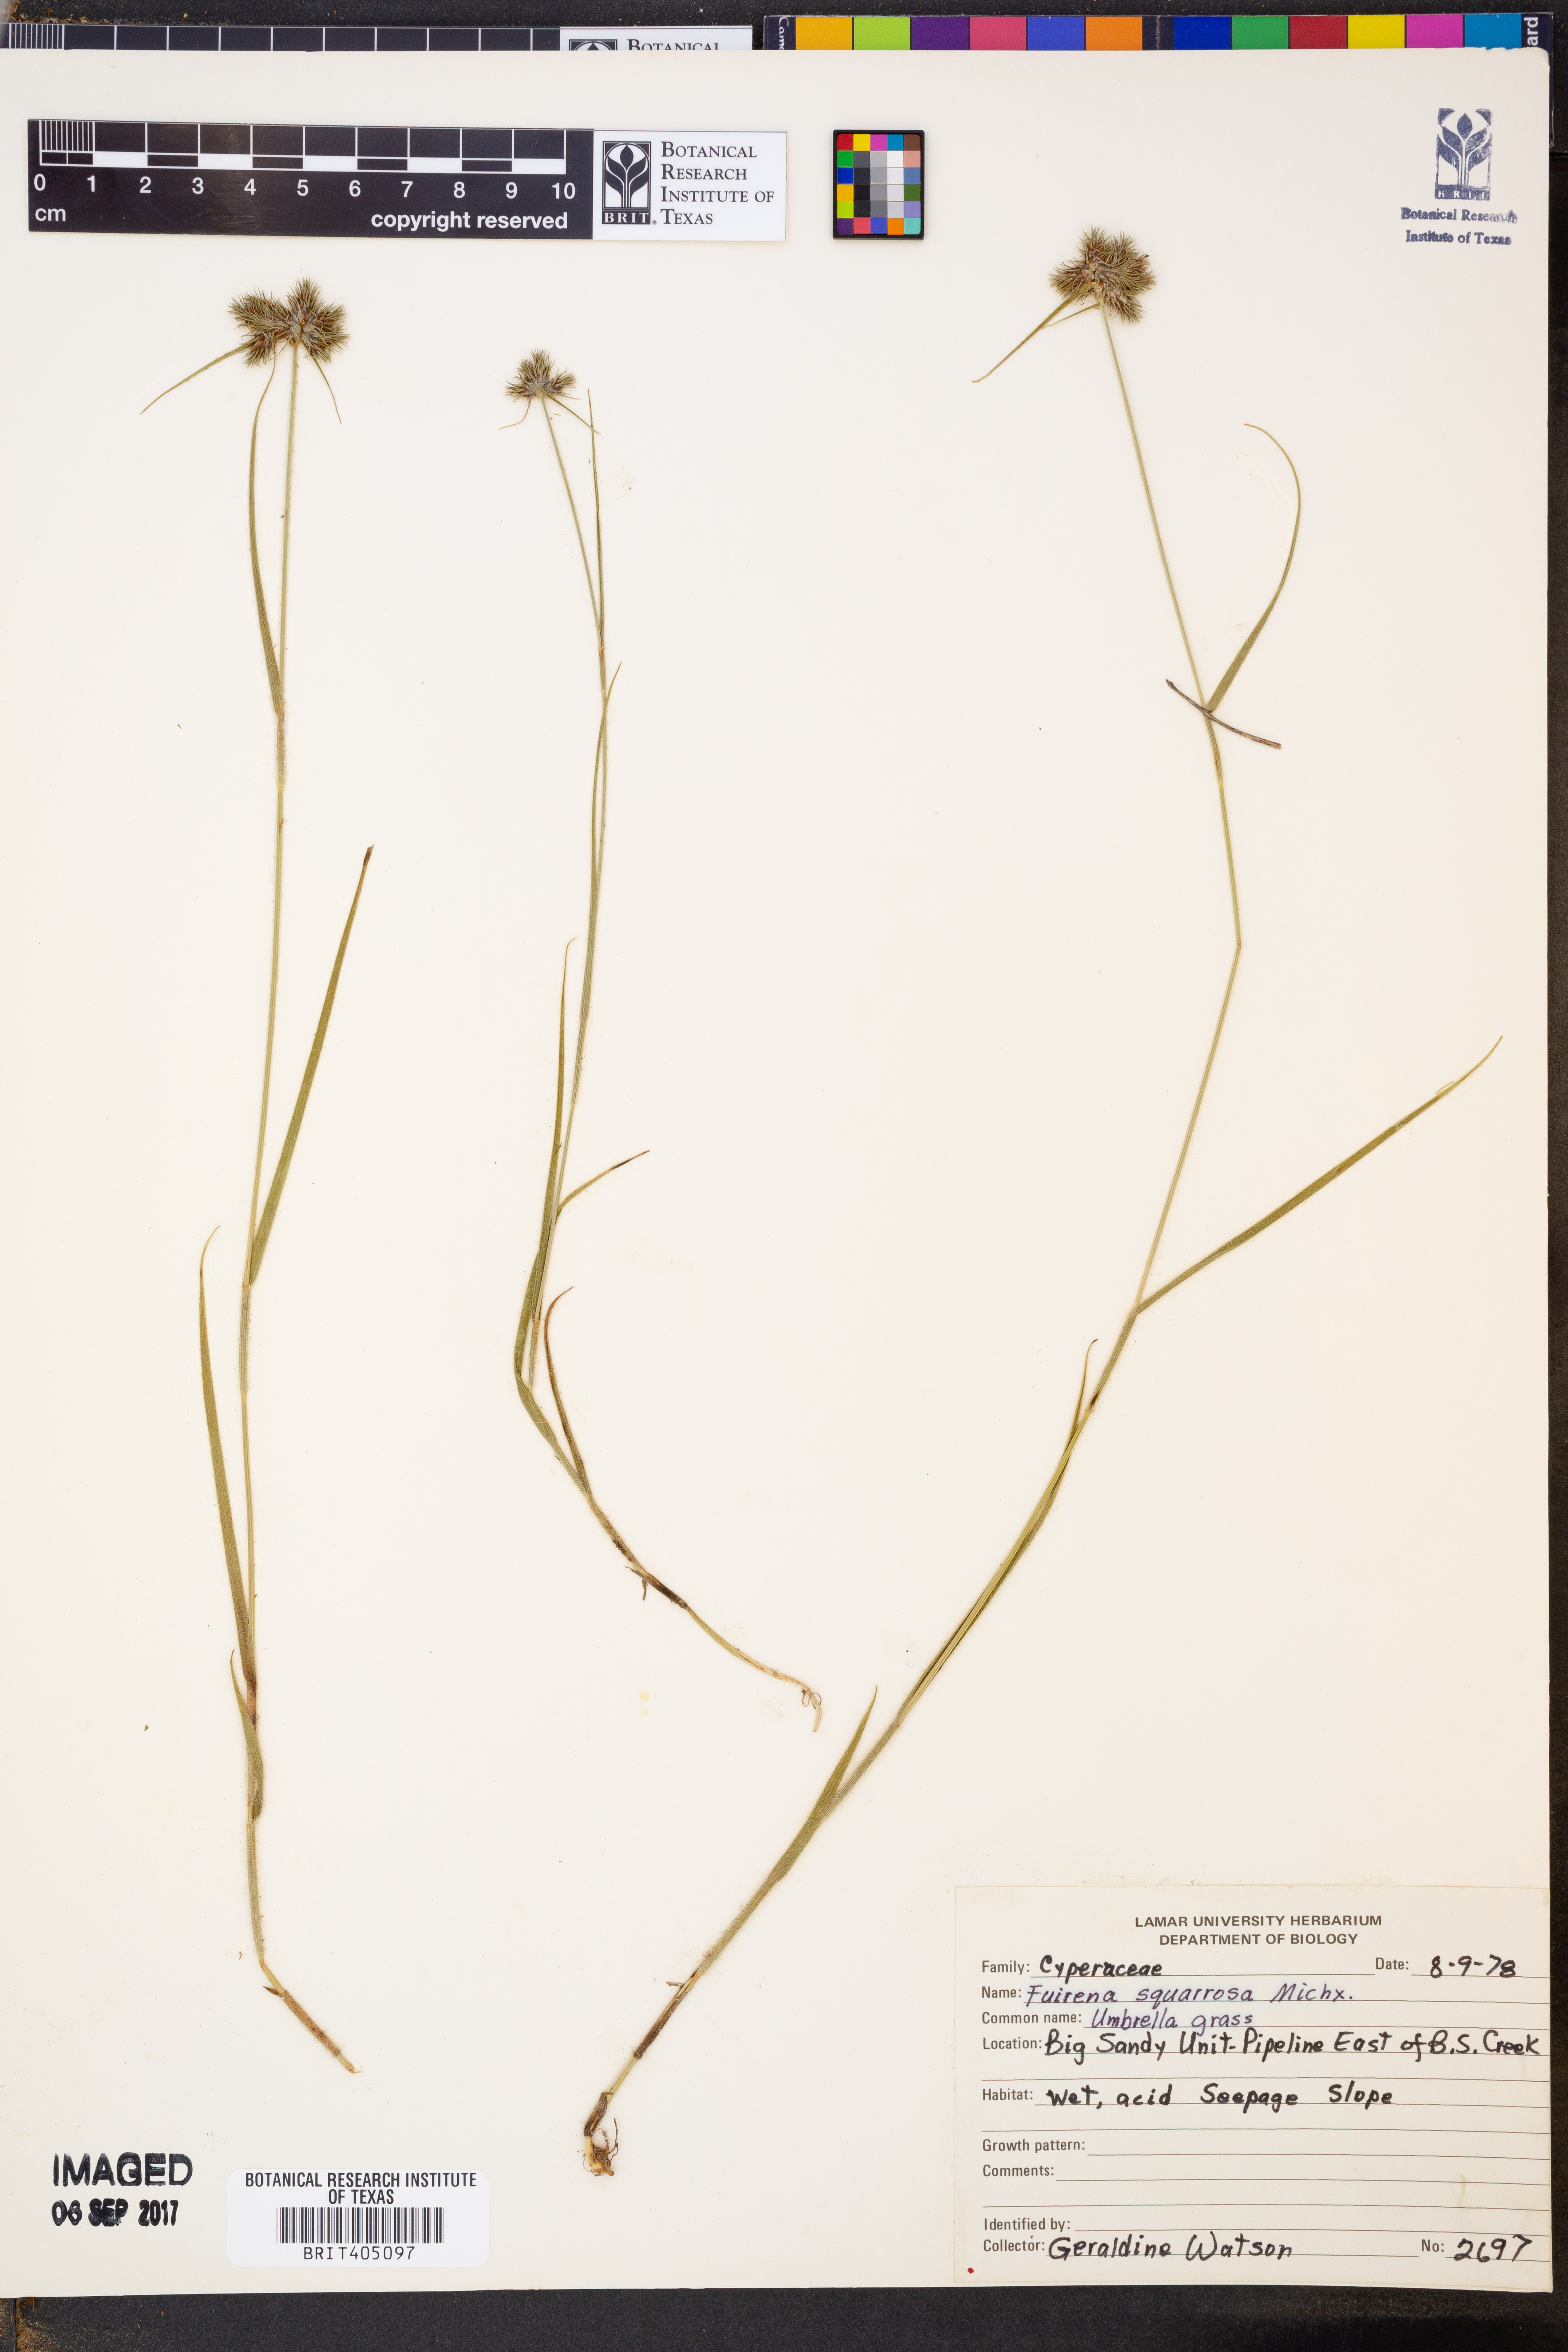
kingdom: Plantae
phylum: Tracheophyta
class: Liliopsida
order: Poales
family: Cyperaceae
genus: Fuirena
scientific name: Fuirena squarrosa
